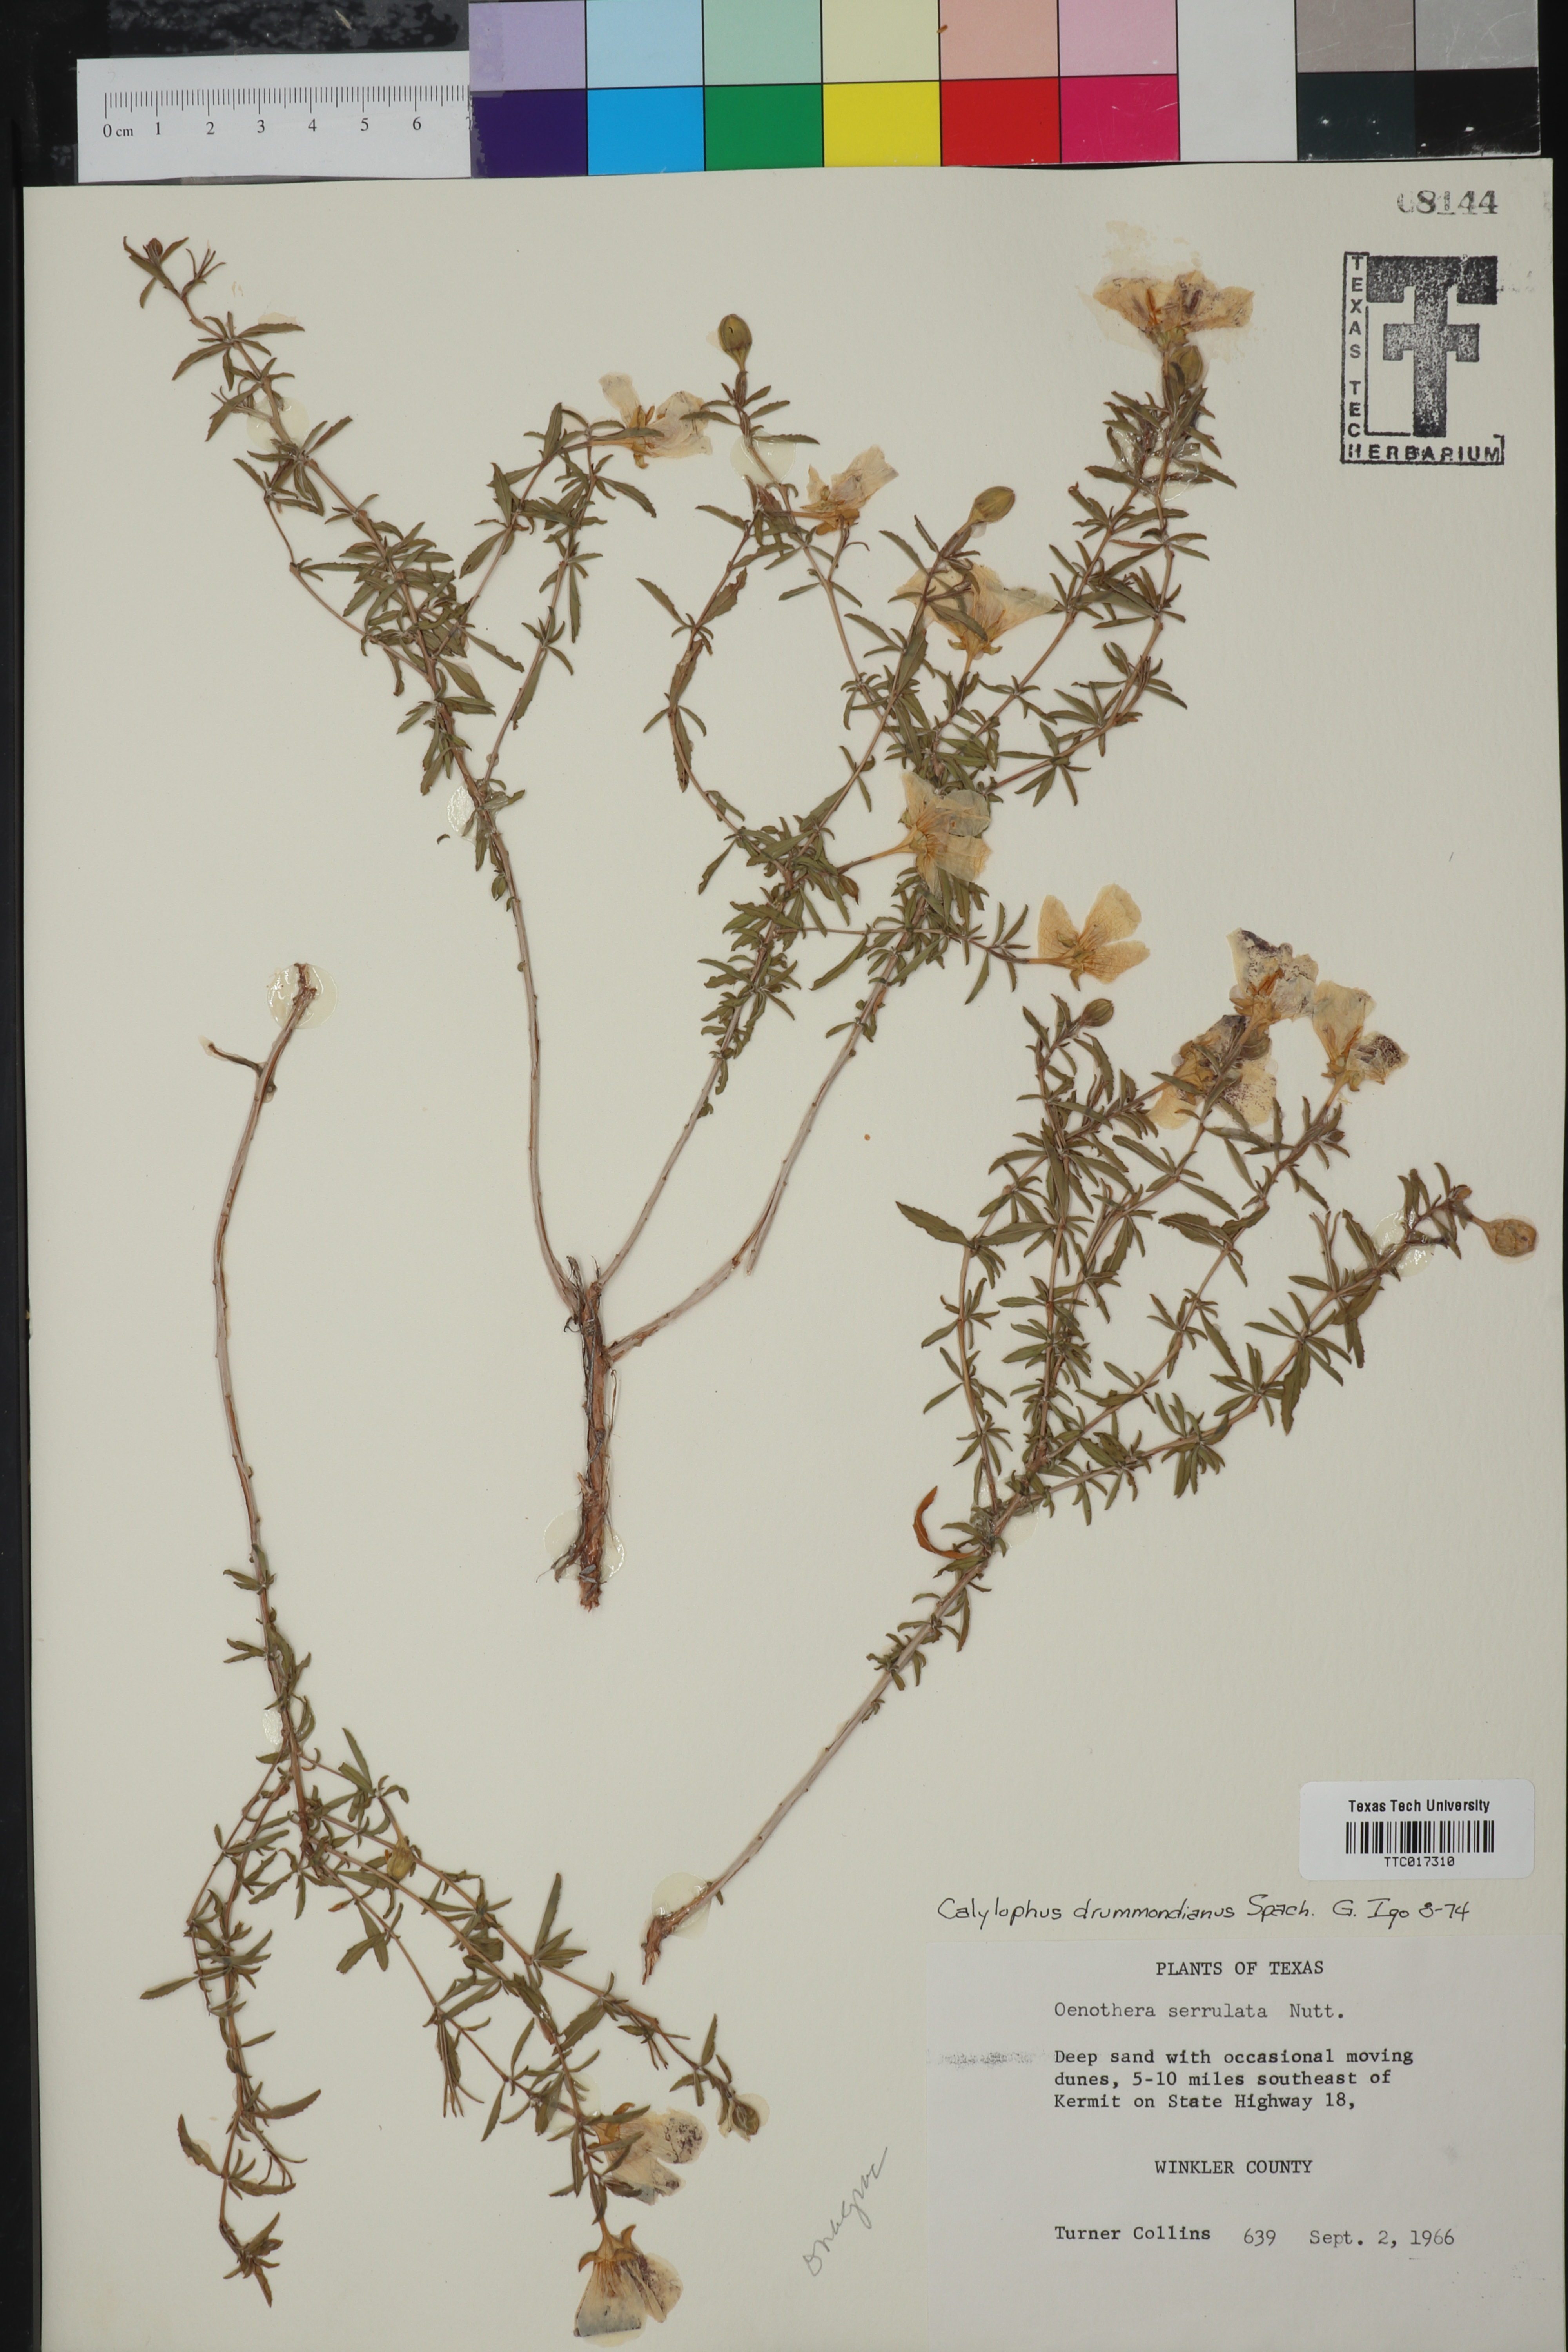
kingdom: Plantae
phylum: Tracheophyta
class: Magnoliopsida
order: Myrtales
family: Onagraceae
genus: Oenothera
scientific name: Oenothera serrulata
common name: Half-shrub calylophus
